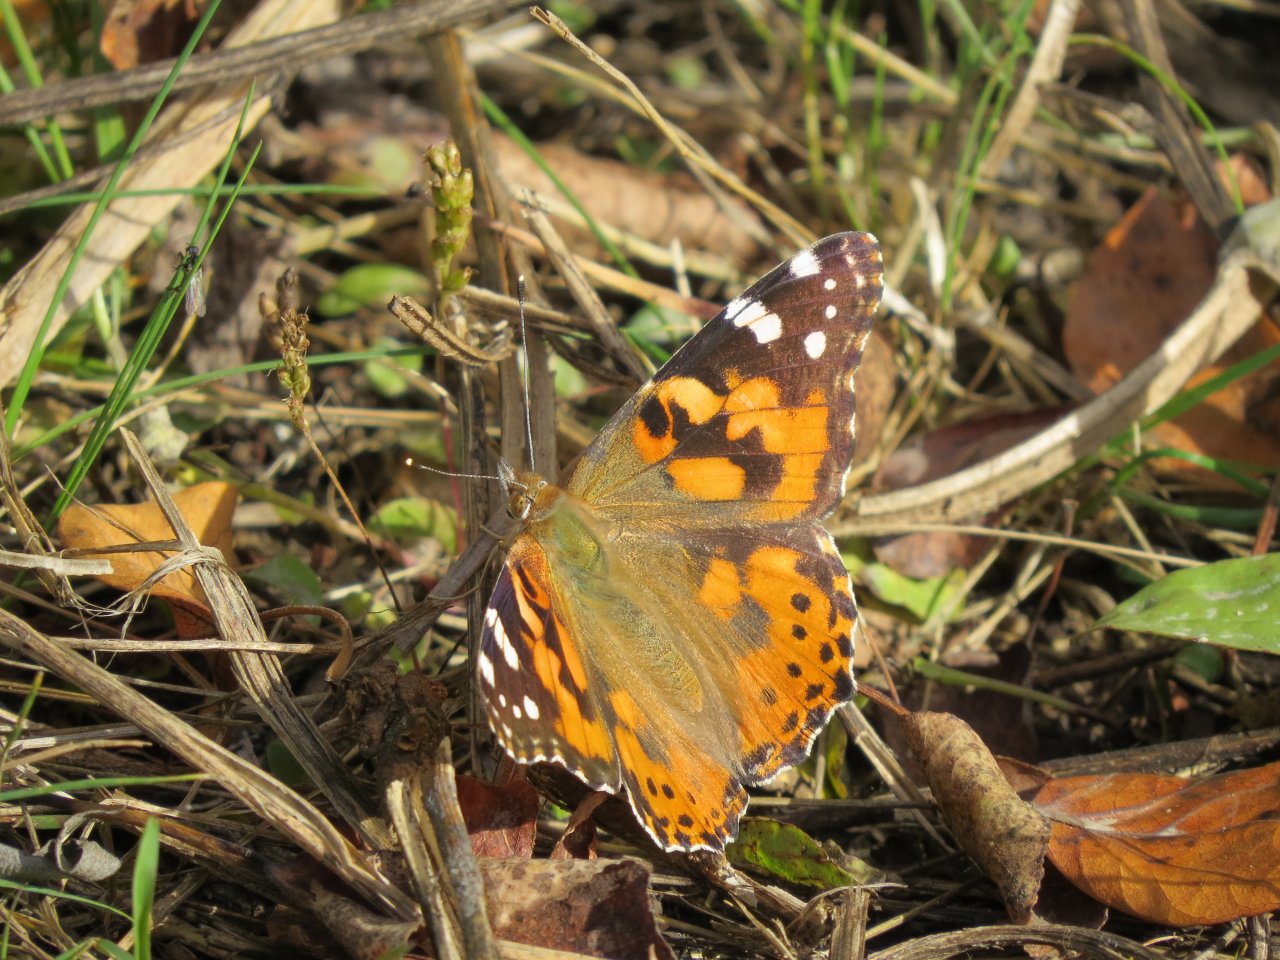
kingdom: Animalia
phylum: Arthropoda
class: Insecta
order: Lepidoptera
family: Nymphalidae
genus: Vanessa
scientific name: Vanessa cardui
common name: Painted Lady
